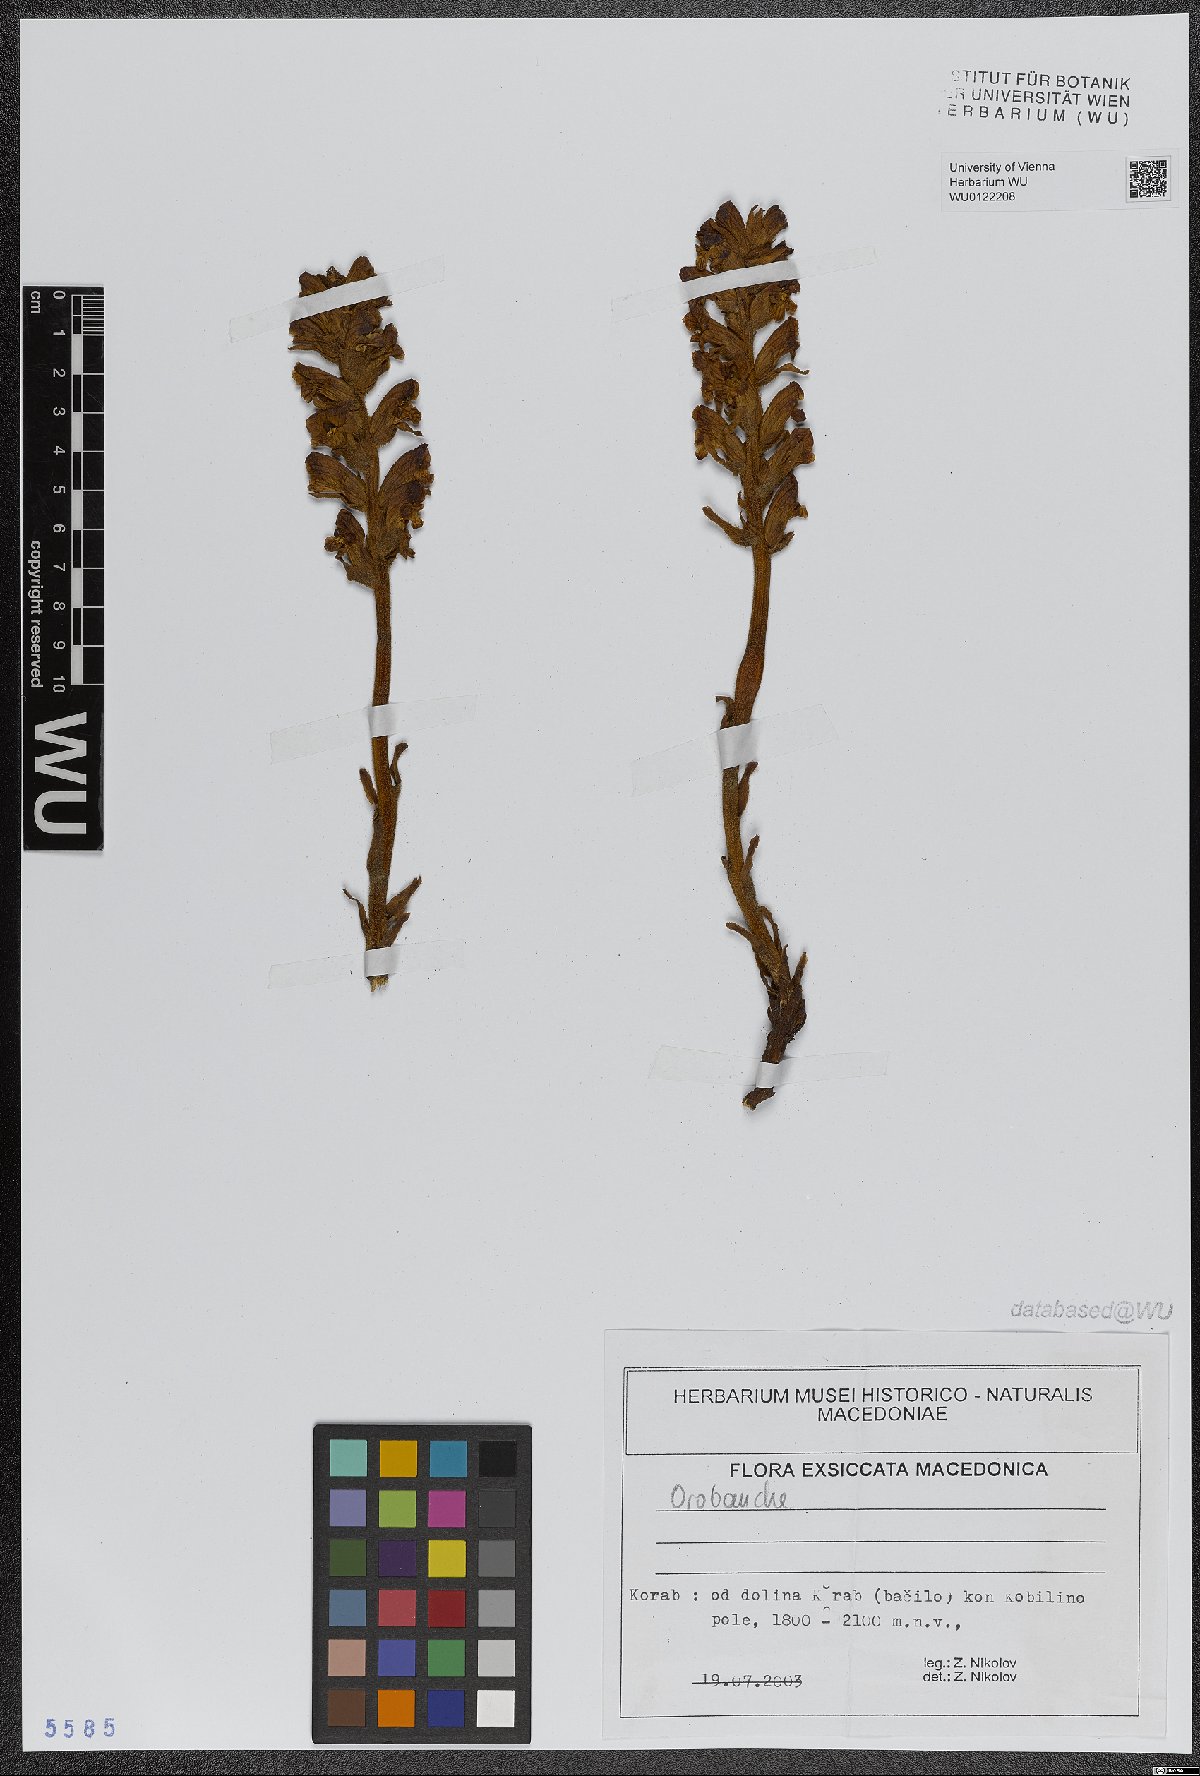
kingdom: Plantae
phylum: Tracheophyta
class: Magnoliopsida
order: Lamiales
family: Orobanchaceae
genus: Orobanche
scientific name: Orobanche
